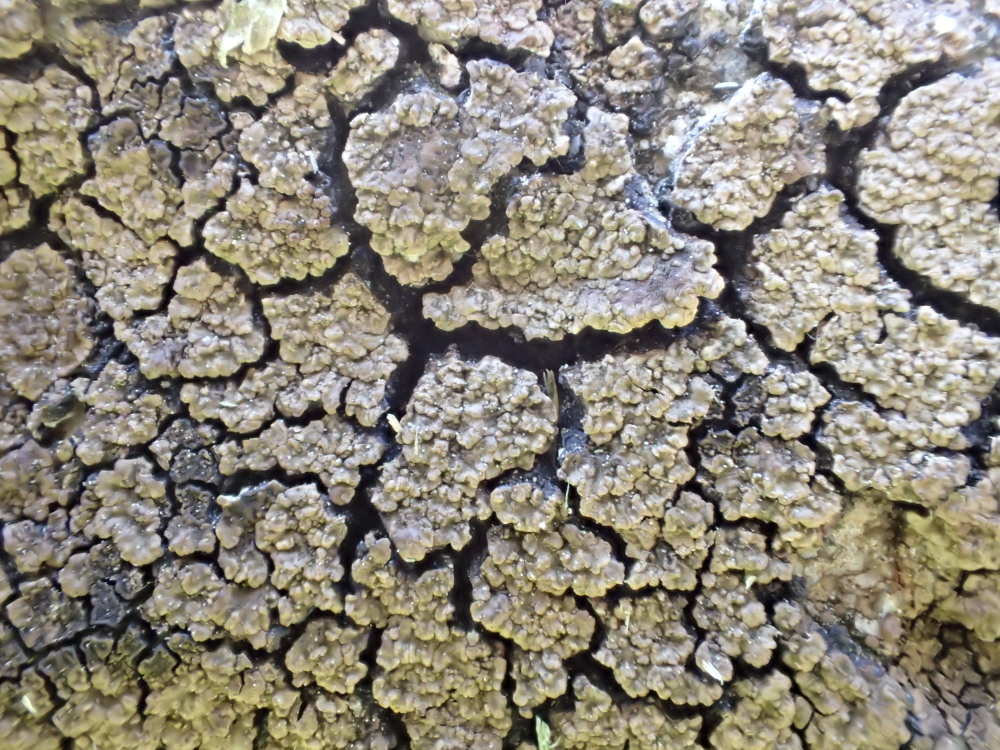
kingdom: Fungi
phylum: Ascomycota
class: Lecanoromycetes
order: Acarosporales
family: Acarosporaceae
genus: Acarospora
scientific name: Acarospora fuscata
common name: brun småsporelav
